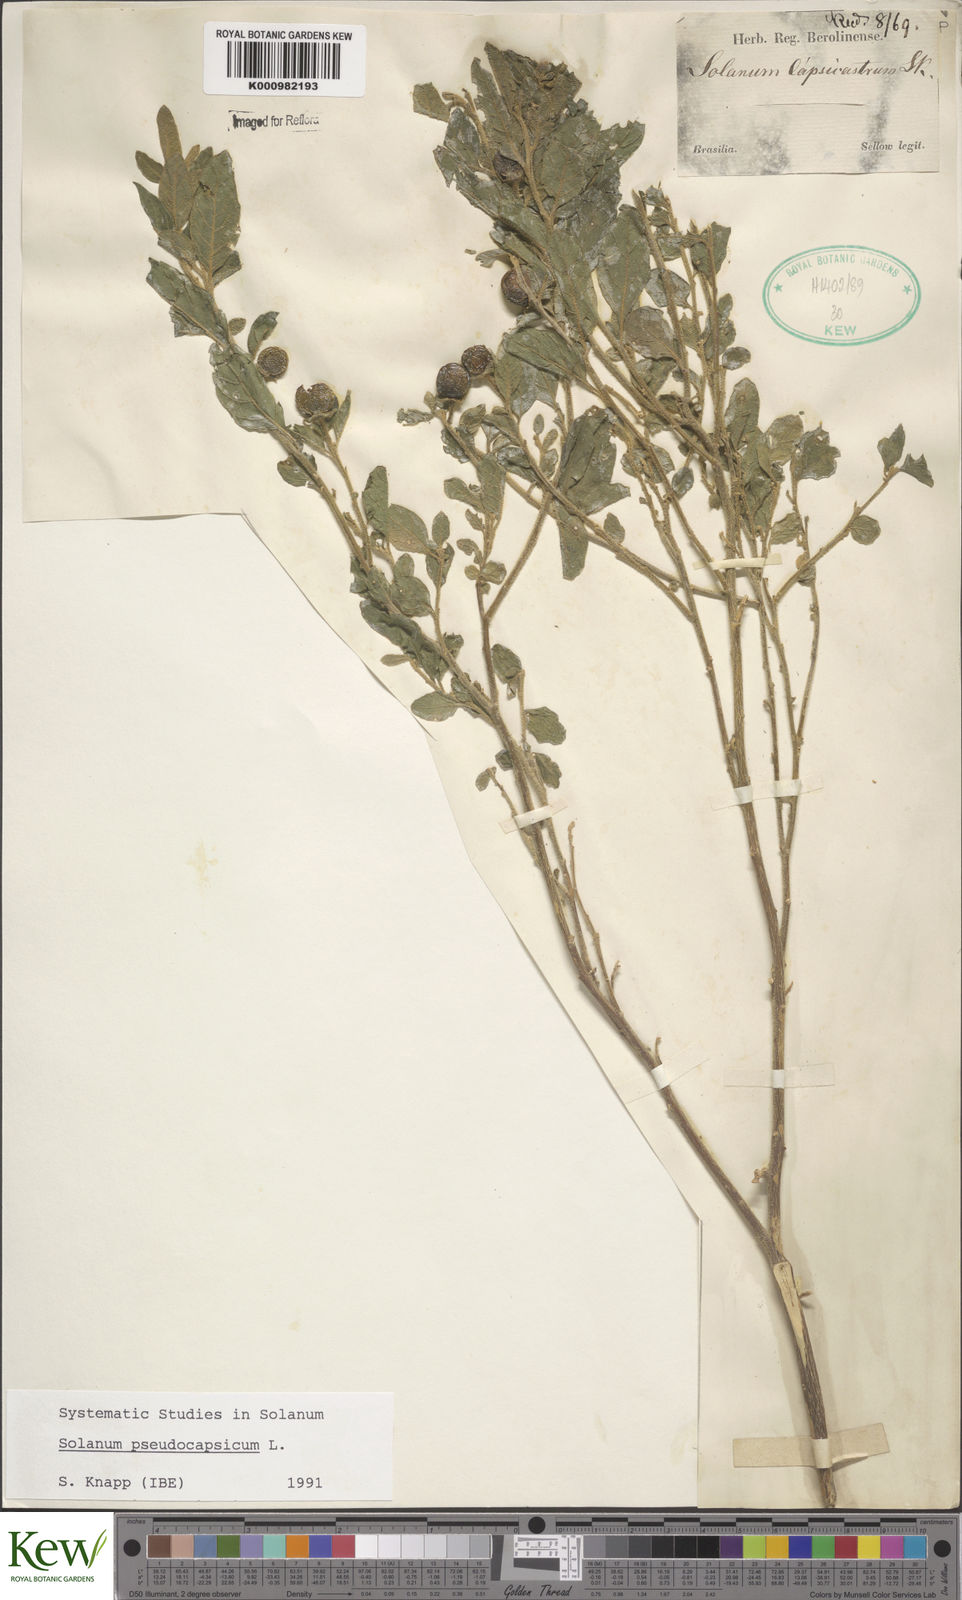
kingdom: Plantae
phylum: Tracheophyta
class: Magnoliopsida
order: Solanales
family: Solanaceae
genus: Solanum
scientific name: Solanum pseudocapsicum
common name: Jerusalem cherry
